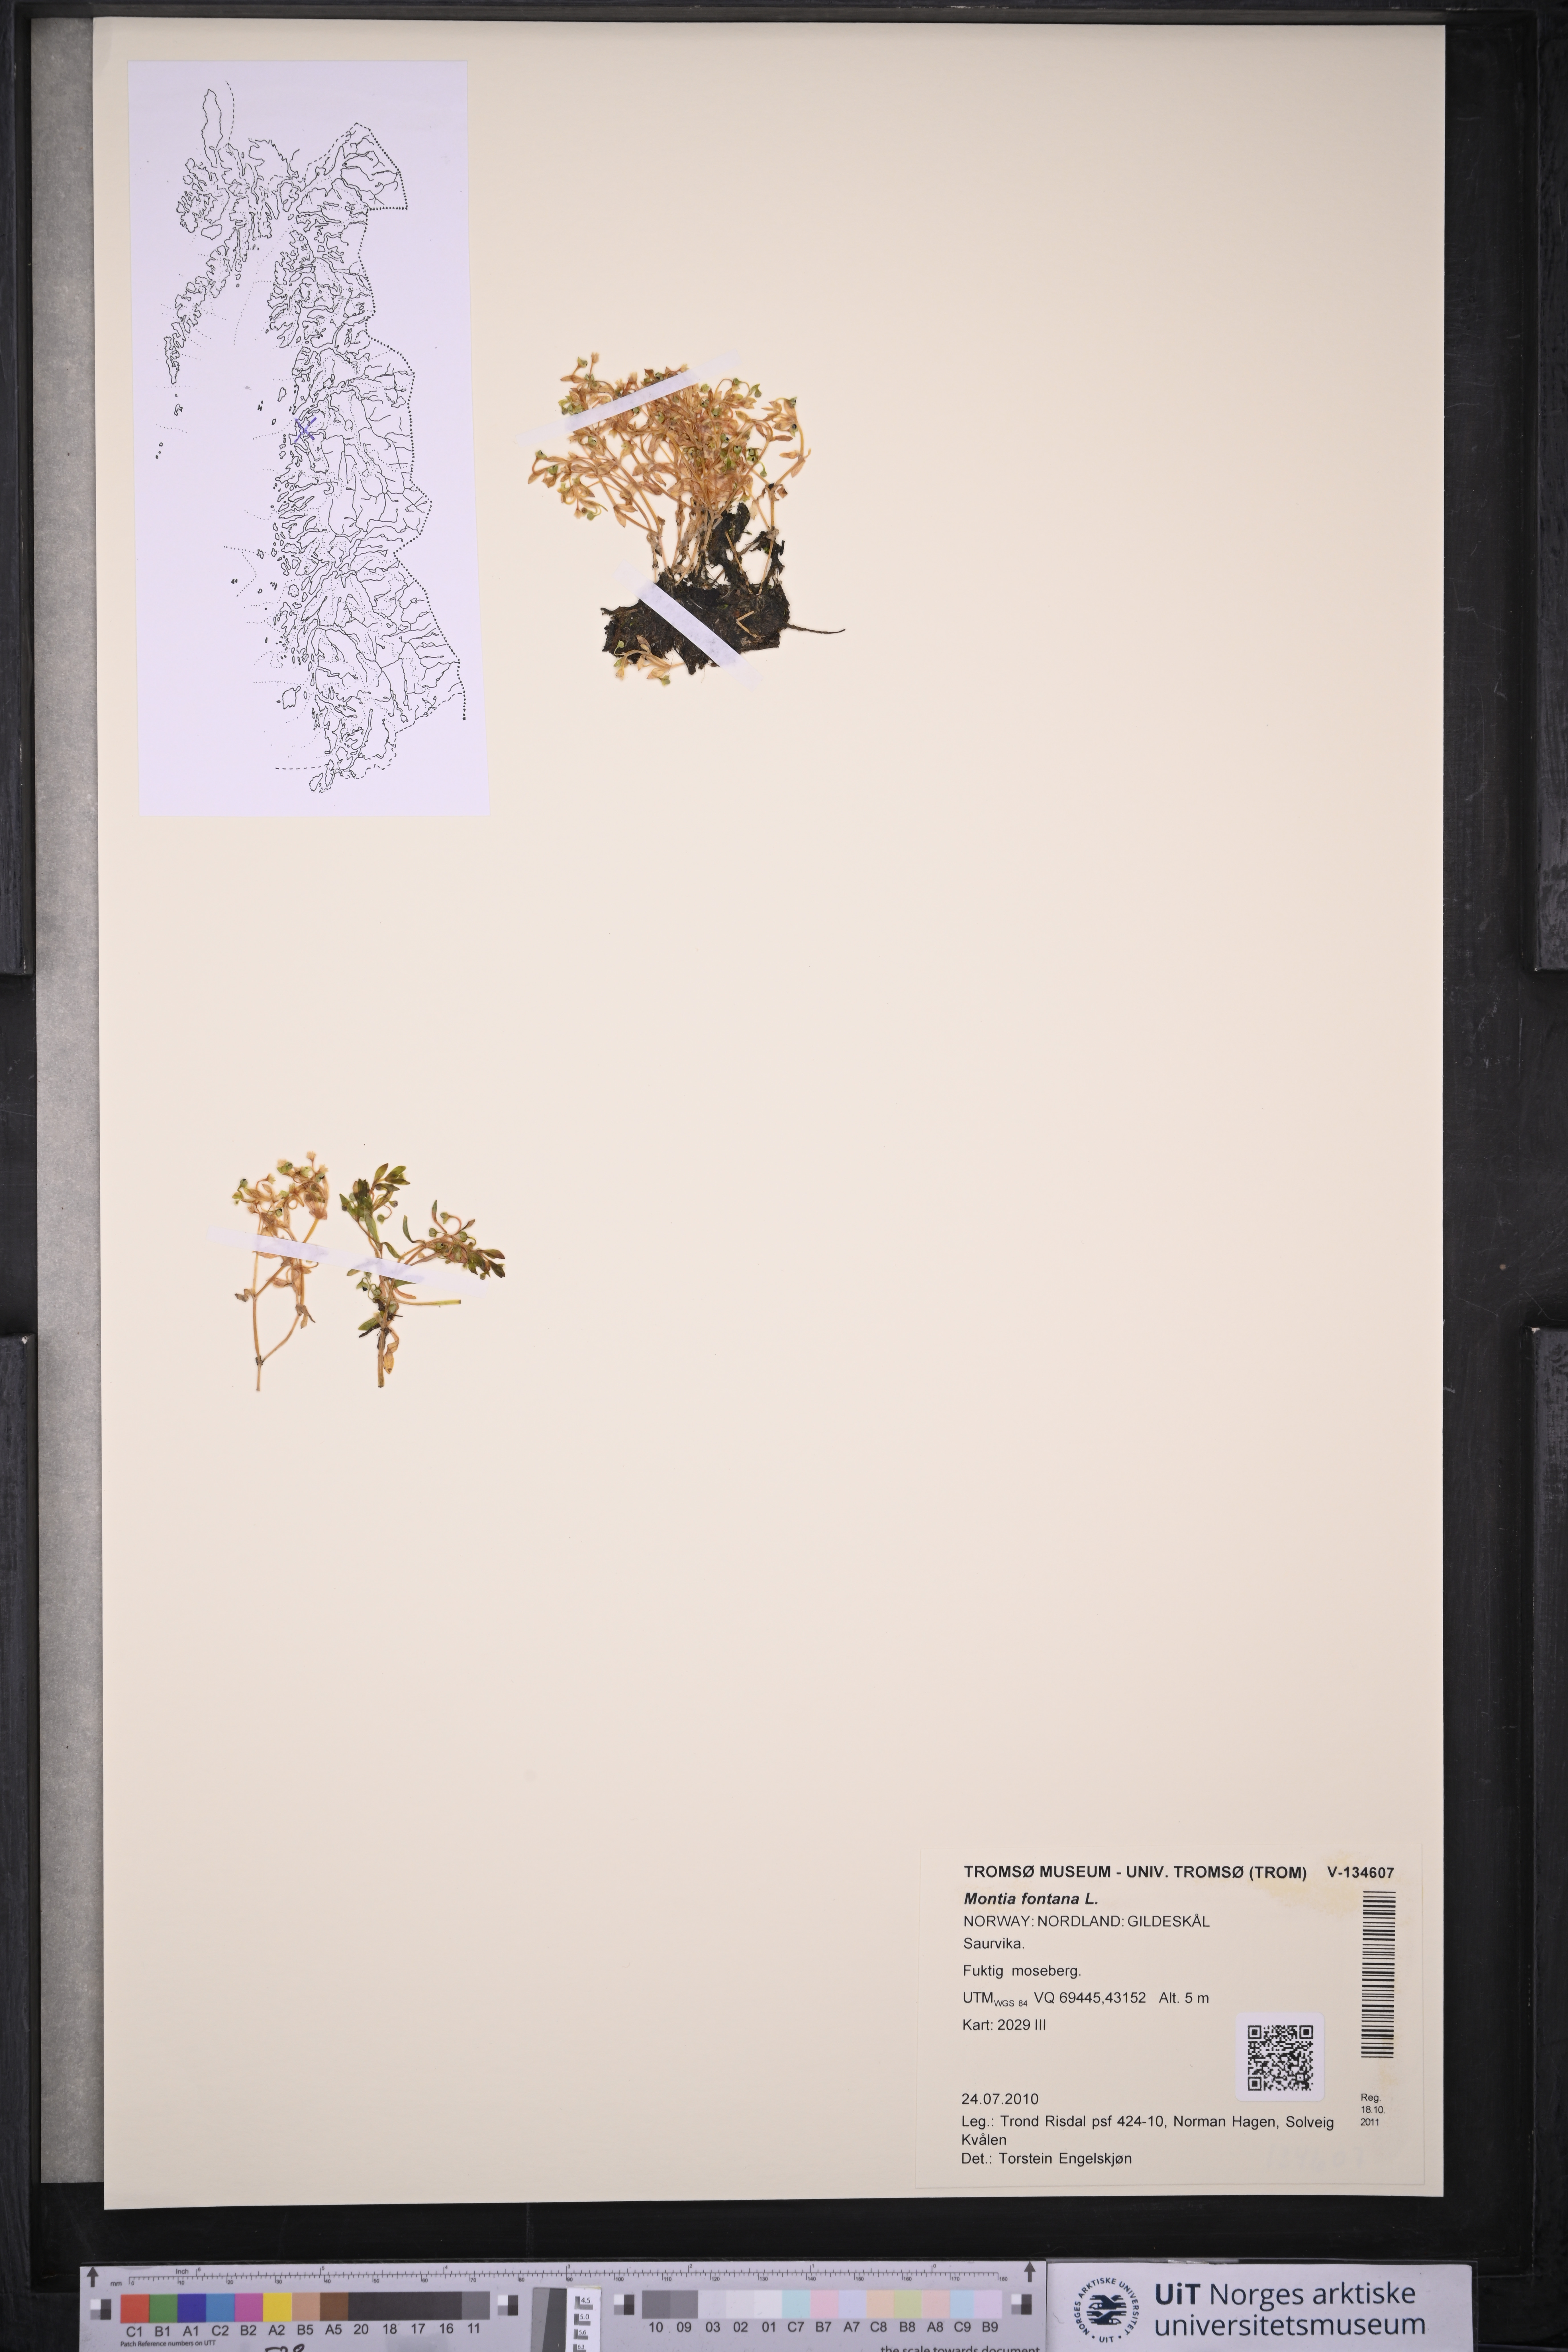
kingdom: Plantae
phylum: Tracheophyta
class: Magnoliopsida
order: Caryophyllales
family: Montiaceae
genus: Montia
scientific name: Montia fontana
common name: Blinks
